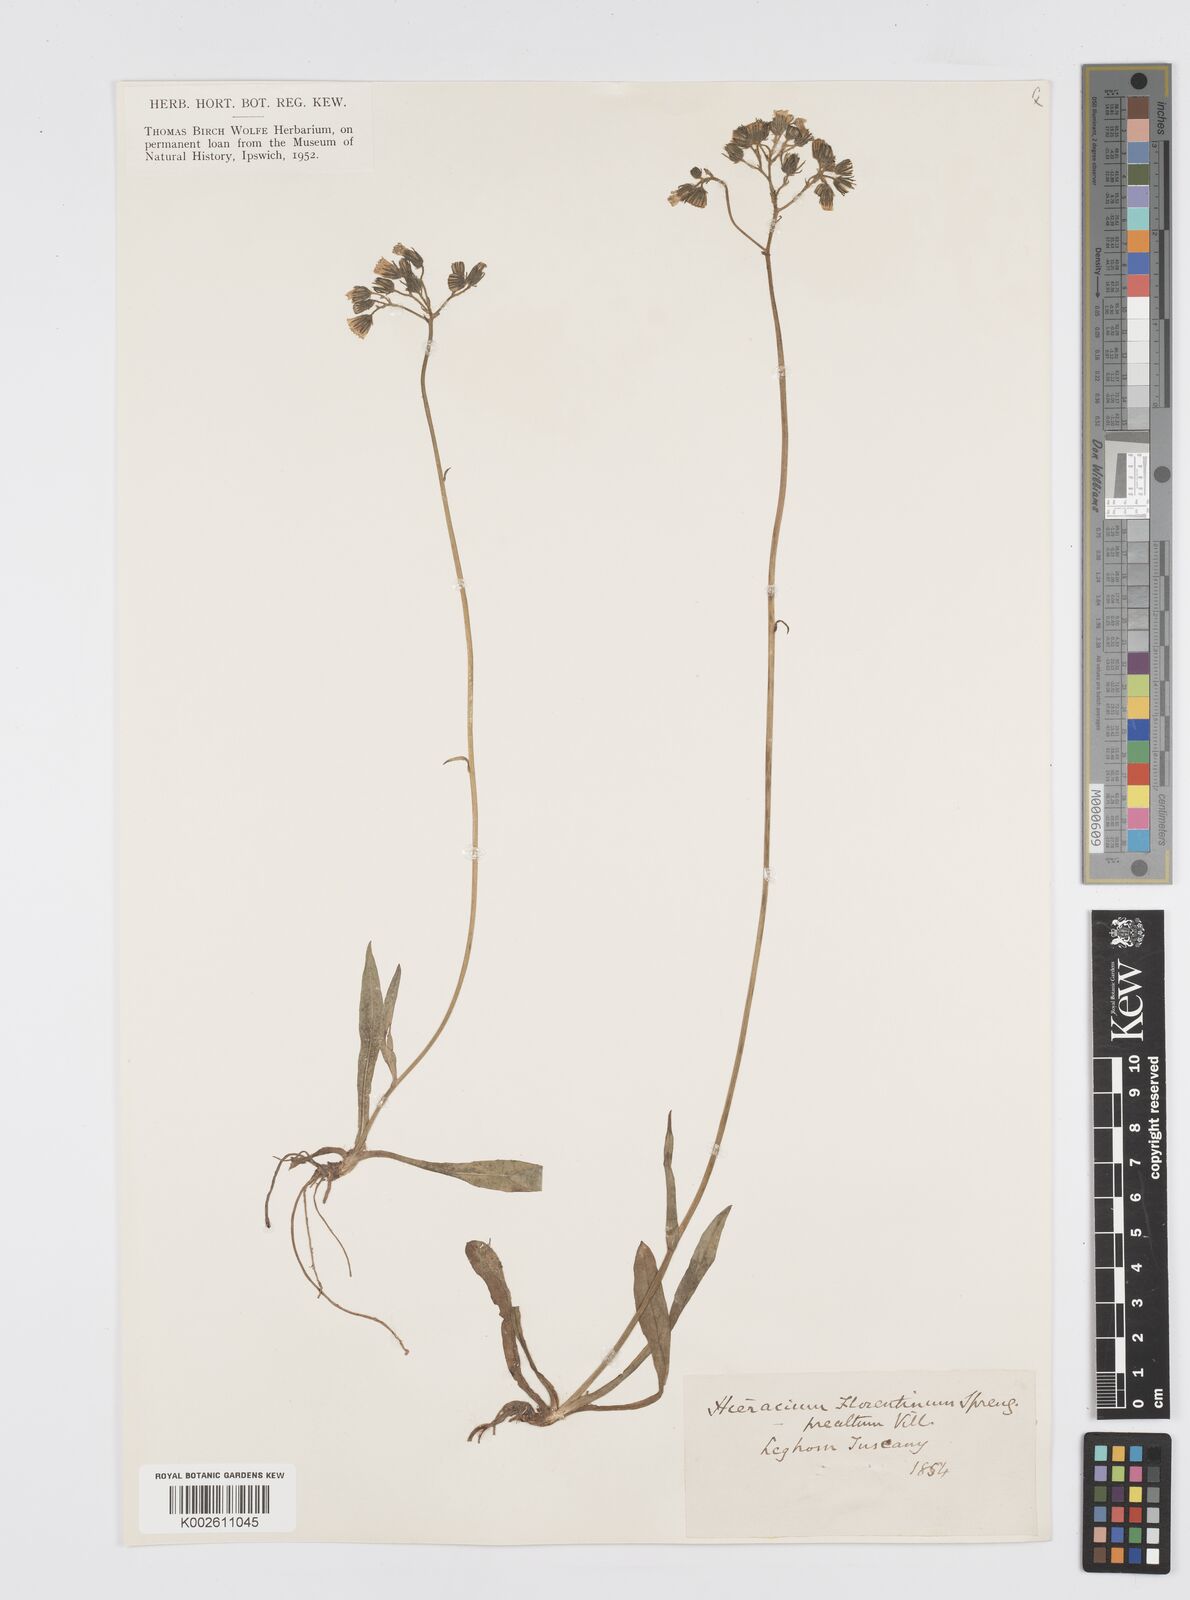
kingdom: Plantae
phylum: Tracheophyta
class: Magnoliopsida
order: Asterales
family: Asteraceae
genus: Pilosella
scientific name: Pilosella piloselloides
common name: Glaucous king-devil
